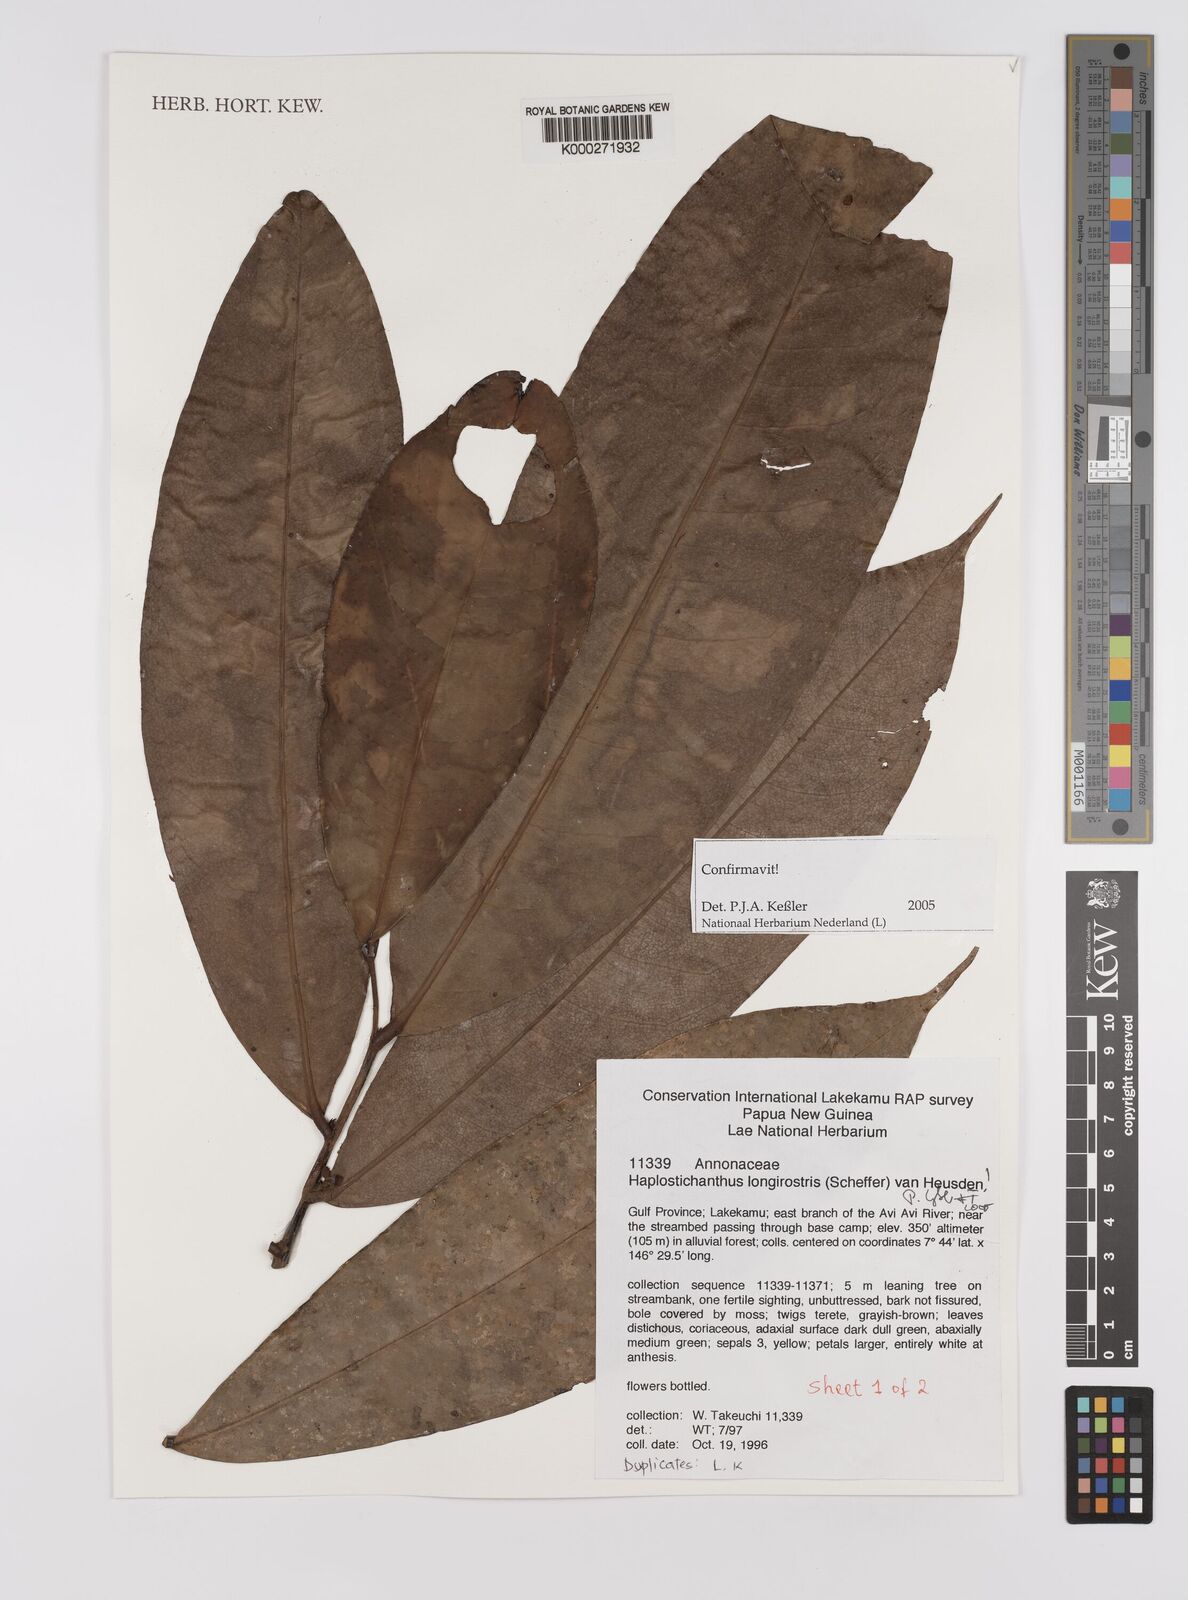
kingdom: Plantae
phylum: Tracheophyta
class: Magnoliopsida
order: Magnoliales
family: Annonaceae
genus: Haplostichanthus
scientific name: Haplostichanthus longirostris
